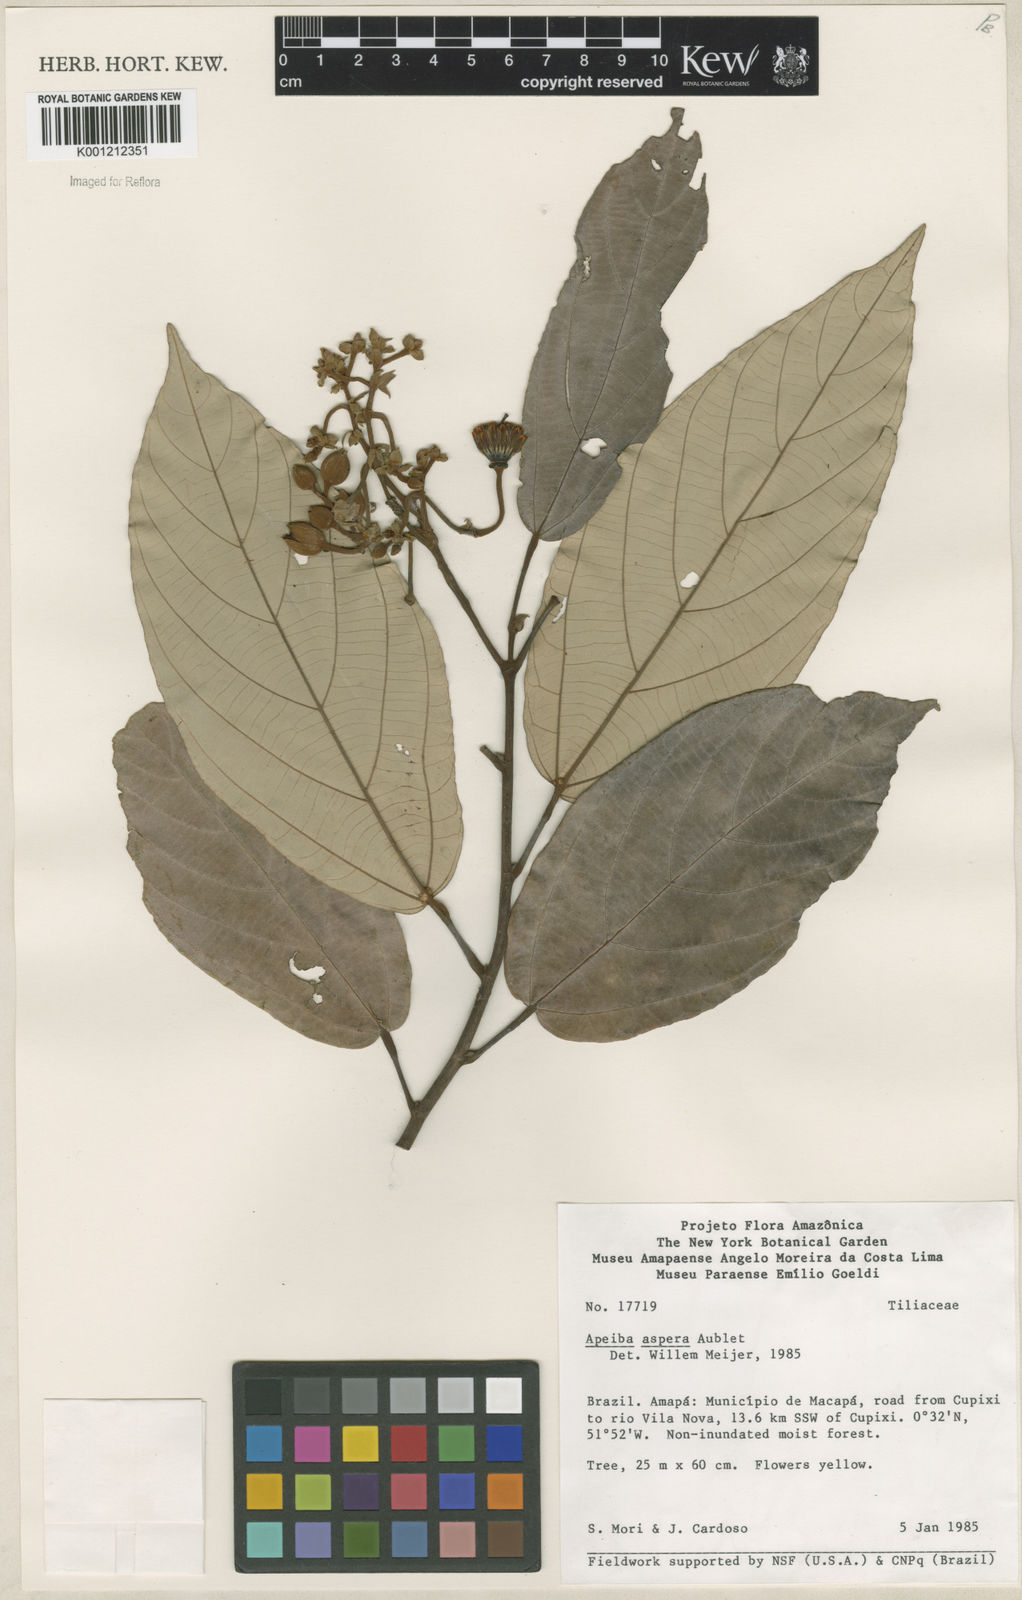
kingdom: Plantae
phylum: Tracheophyta
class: Magnoliopsida
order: Malvales
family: Malvaceae
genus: Apeiba
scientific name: Apeiba
